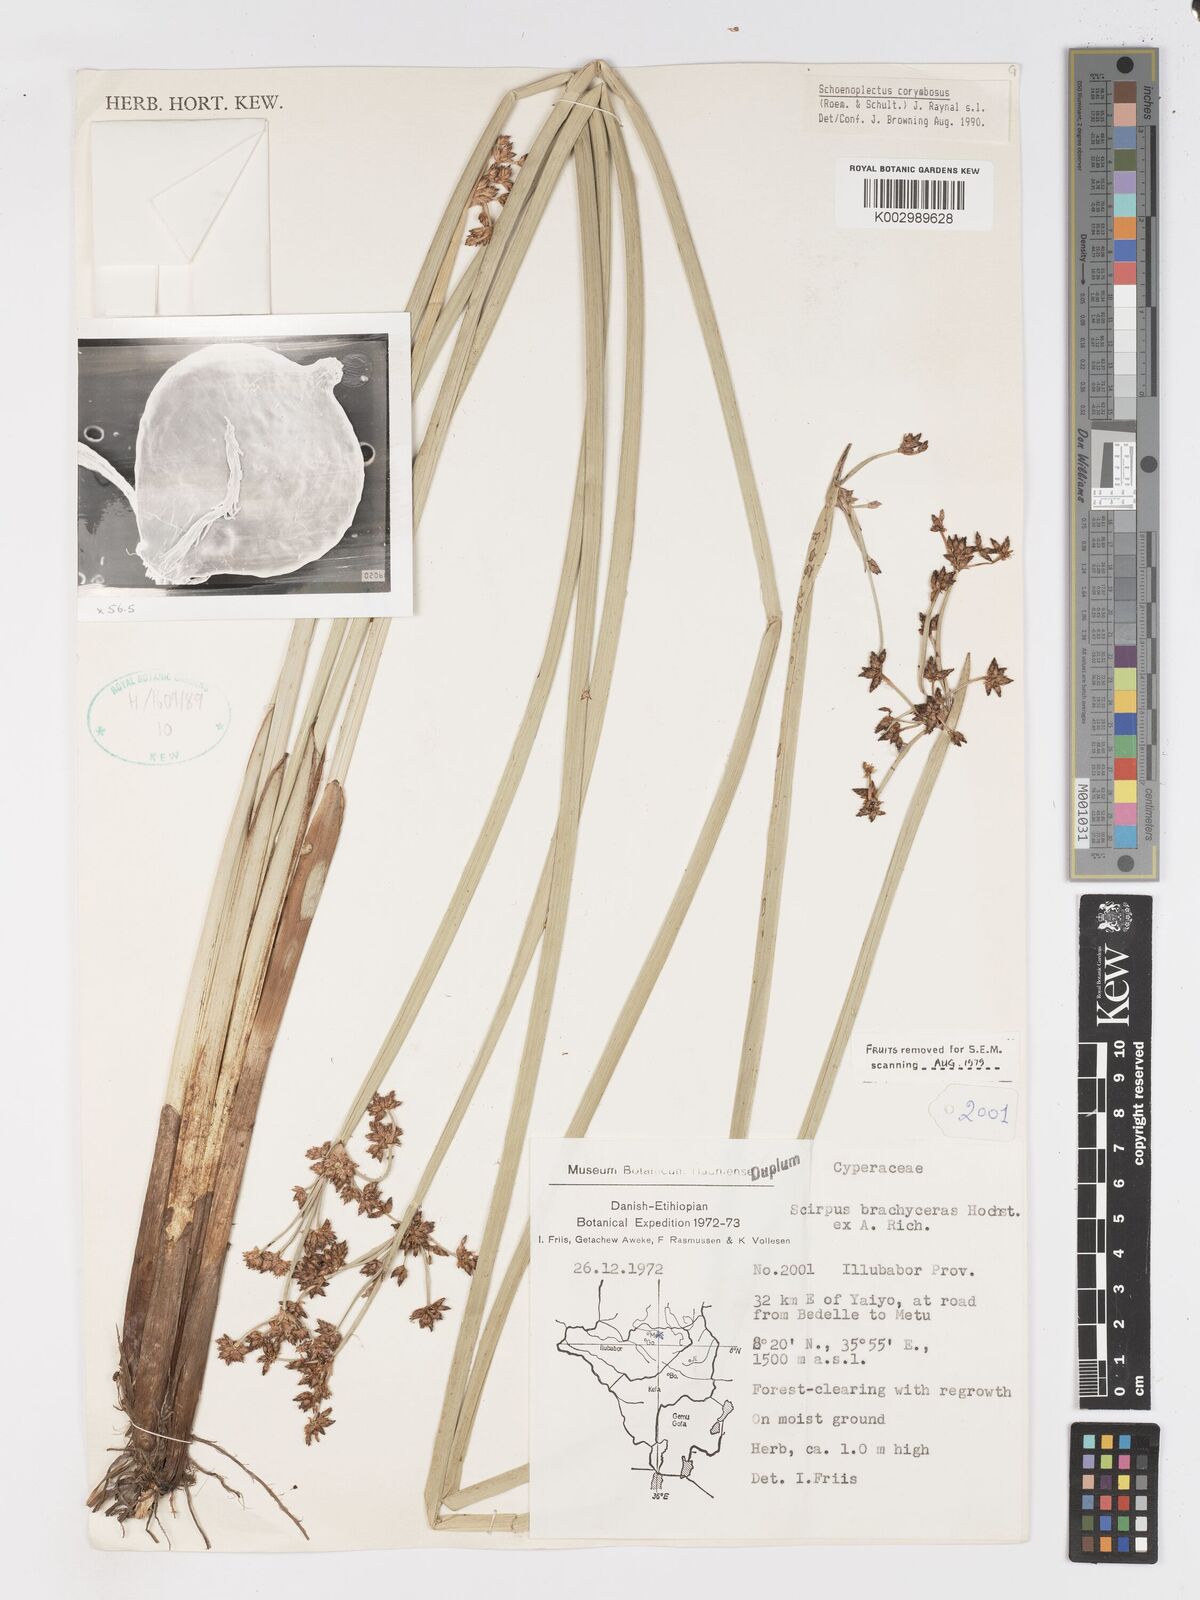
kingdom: Plantae
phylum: Tracheophyta
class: Liliopsida
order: Poales
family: Cyperaceae
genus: Schoenoplectiella
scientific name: Schoenoplectiella brachyceras
